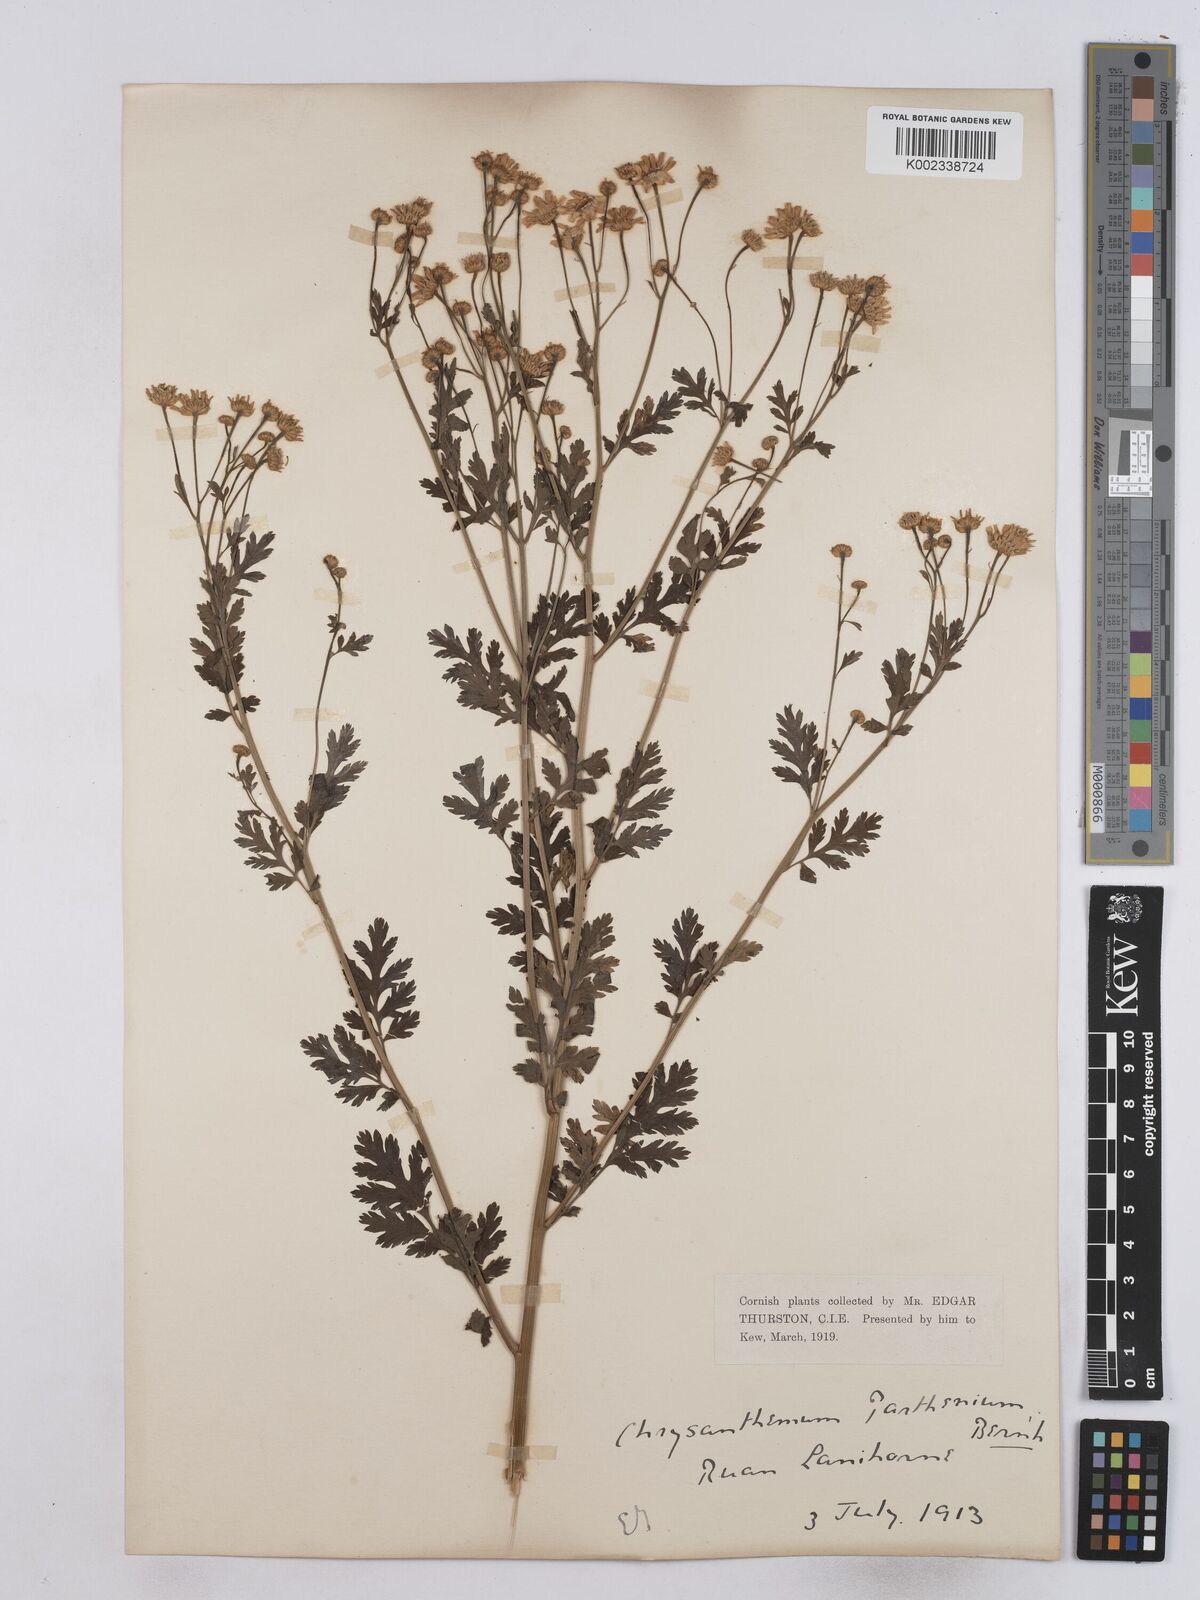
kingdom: Plantae
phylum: Tracheophyta
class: Magnoliopsida
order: Asterales
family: Asteraceae
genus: Tanacetum
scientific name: Tanacetum parthenium
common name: Feverfew
